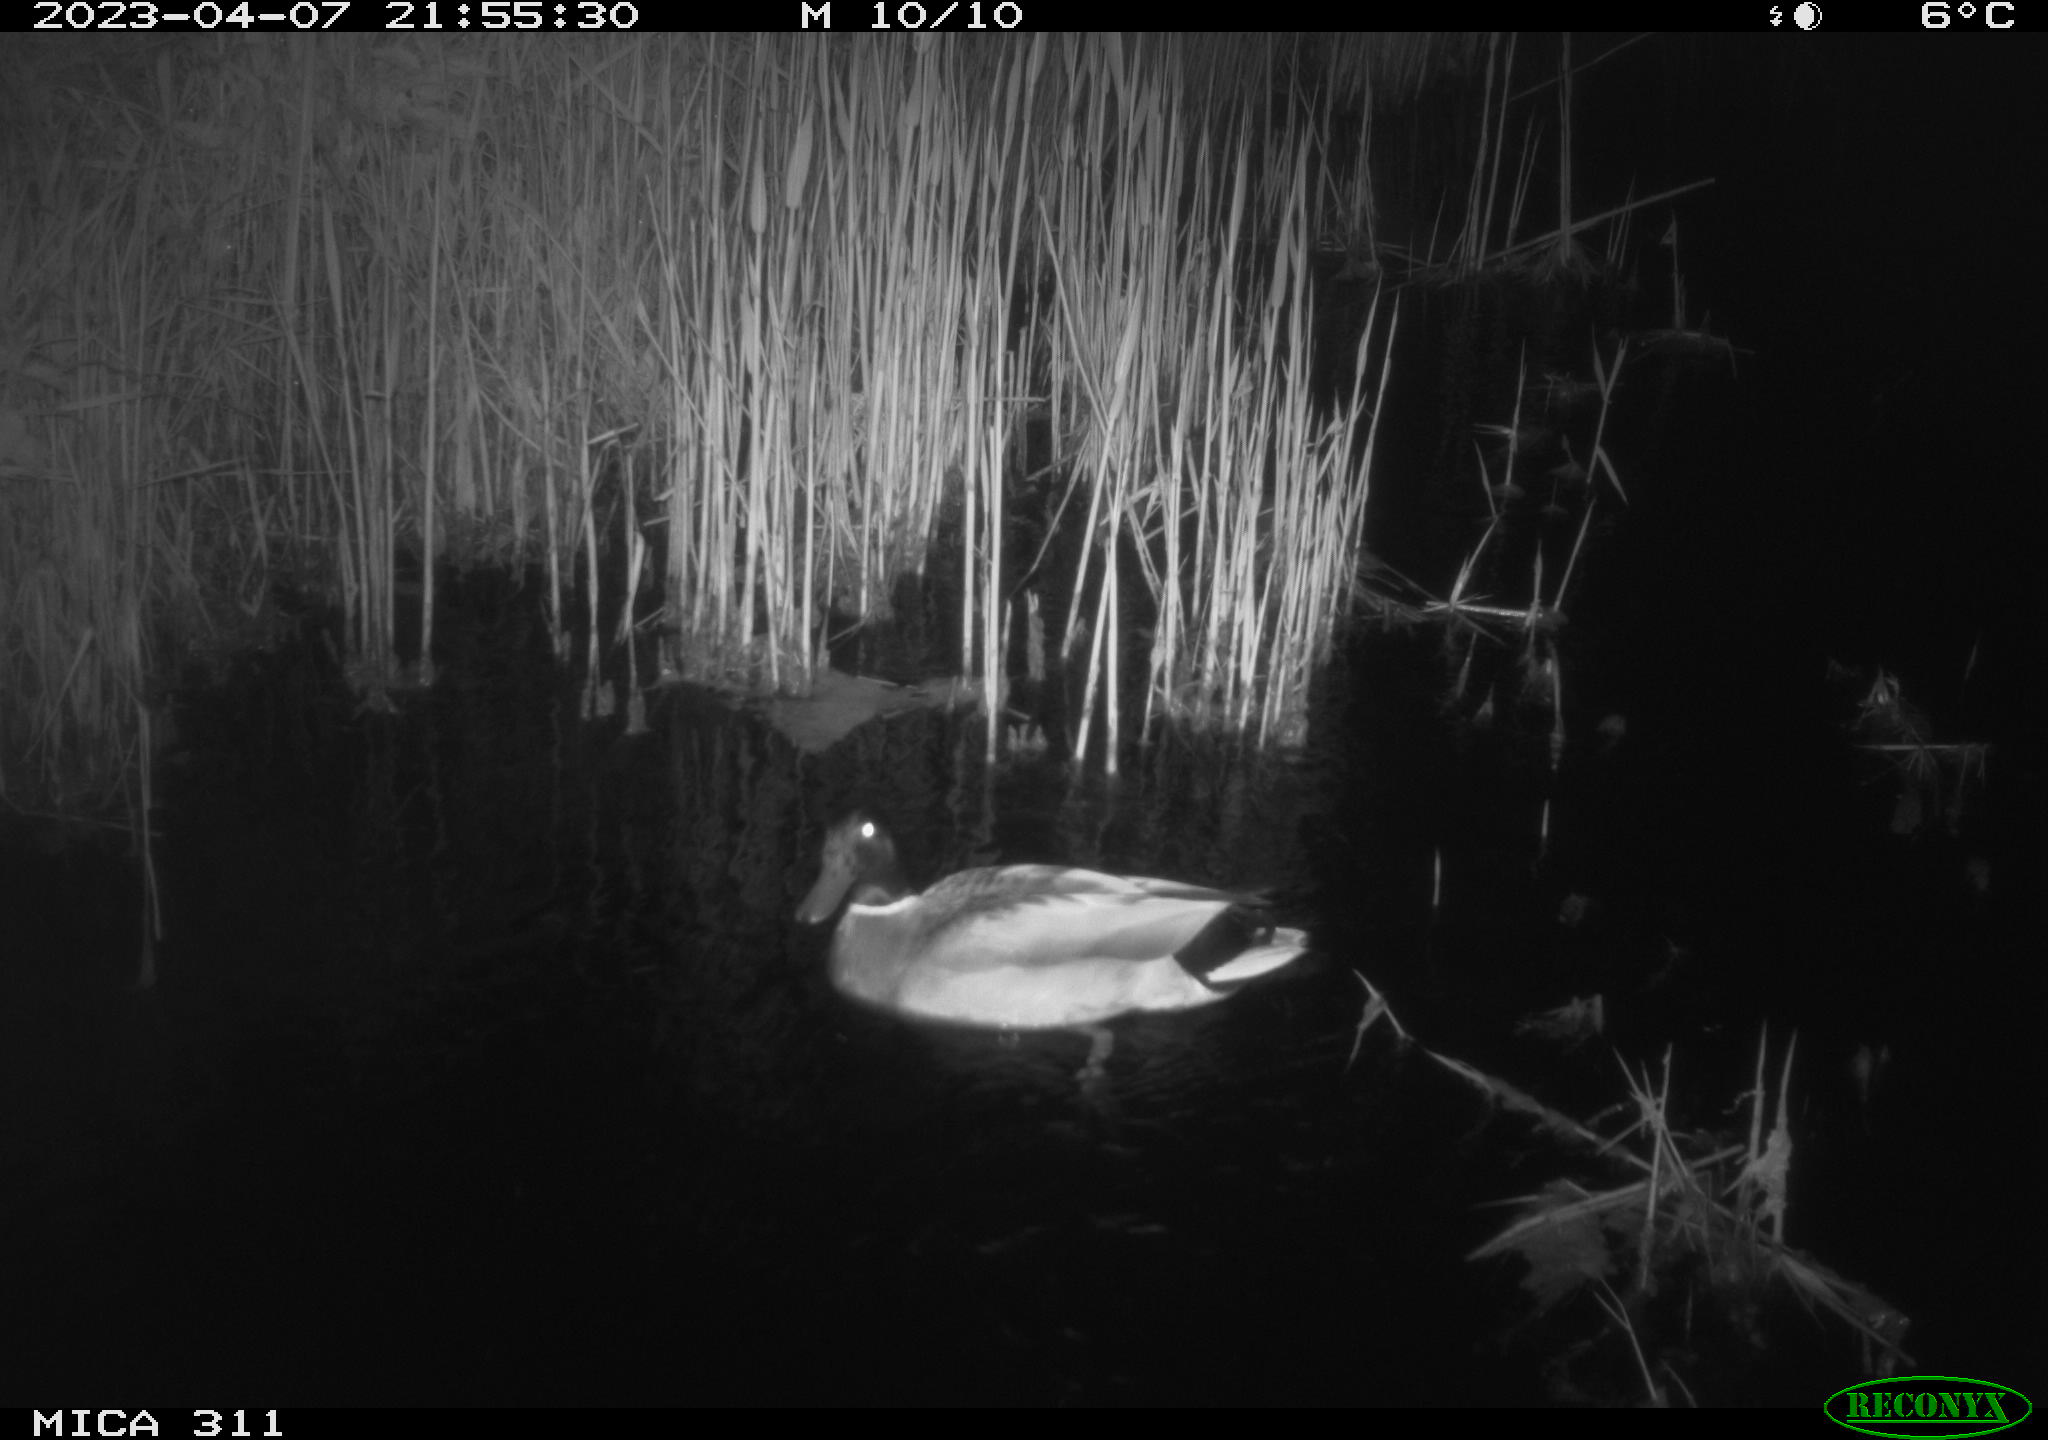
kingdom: Animalia
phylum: Chordata
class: Aves
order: Anseriformes
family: Anatidae
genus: Anas
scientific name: Anas
